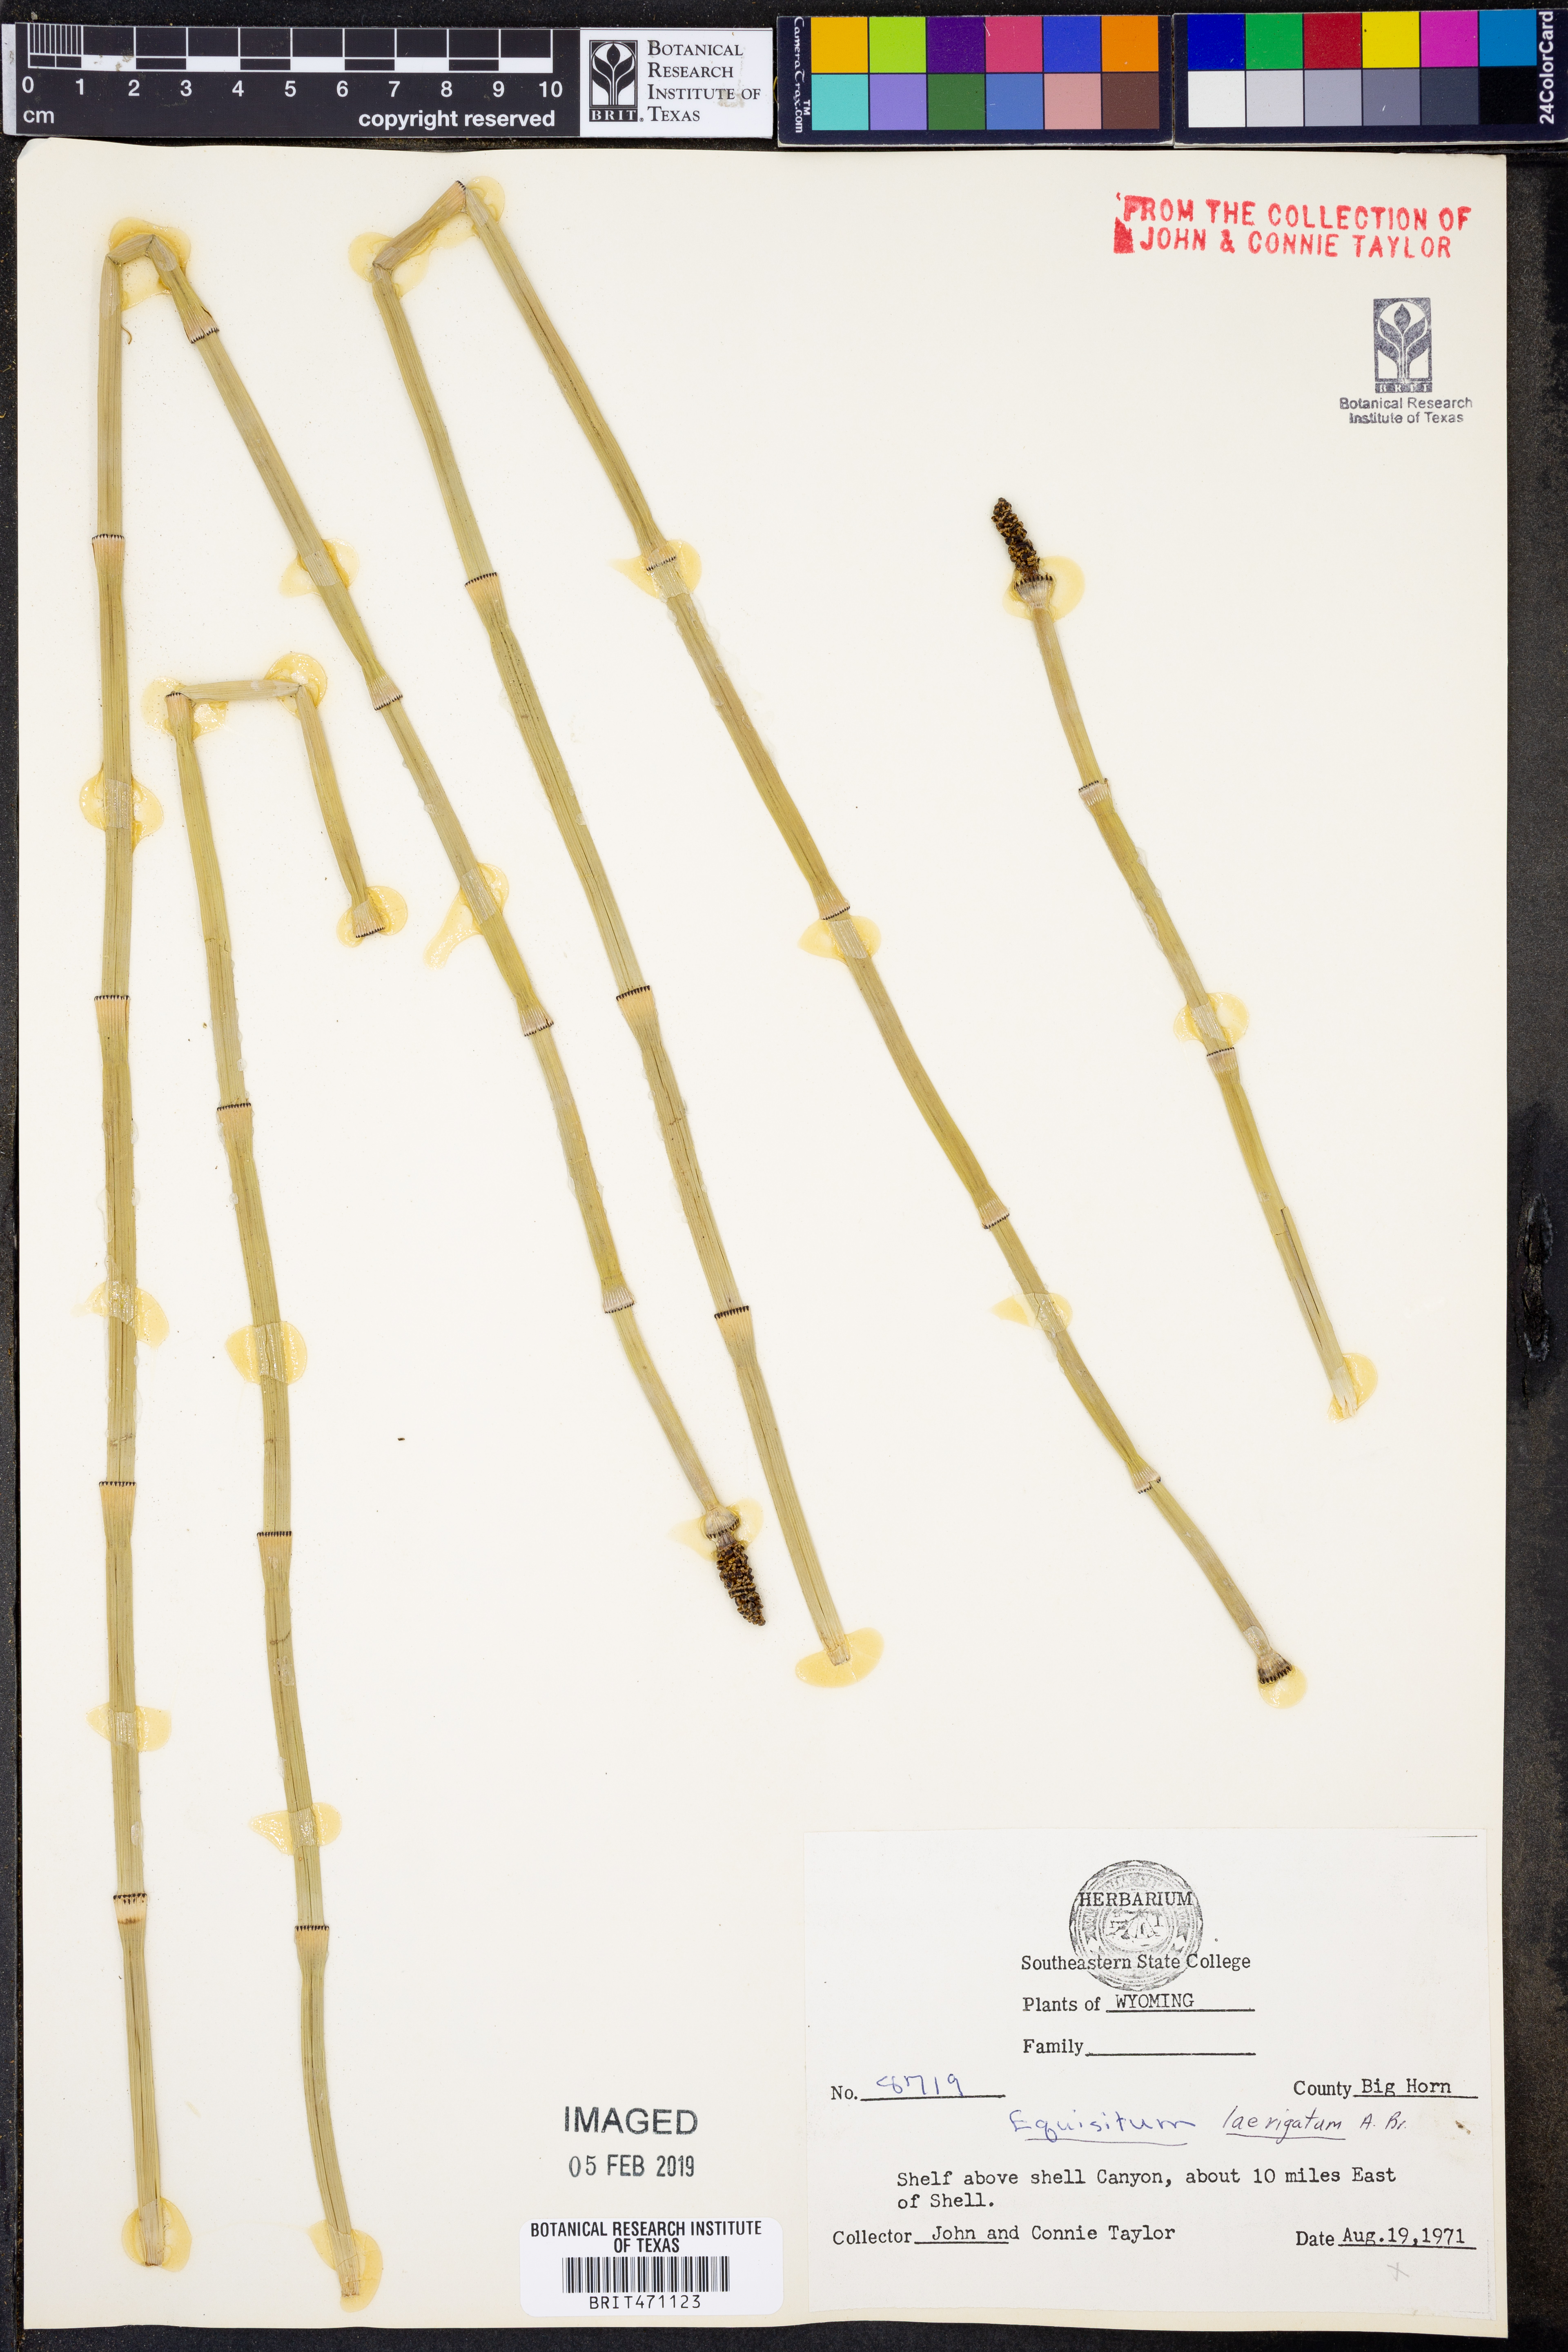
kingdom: Plantae
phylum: Tracheophyta
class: Polypodiopsida
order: Equisetales
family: Equisetaceae
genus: Equisetum
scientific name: Equisetum laevigatum
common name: Smooth scouring-rush
